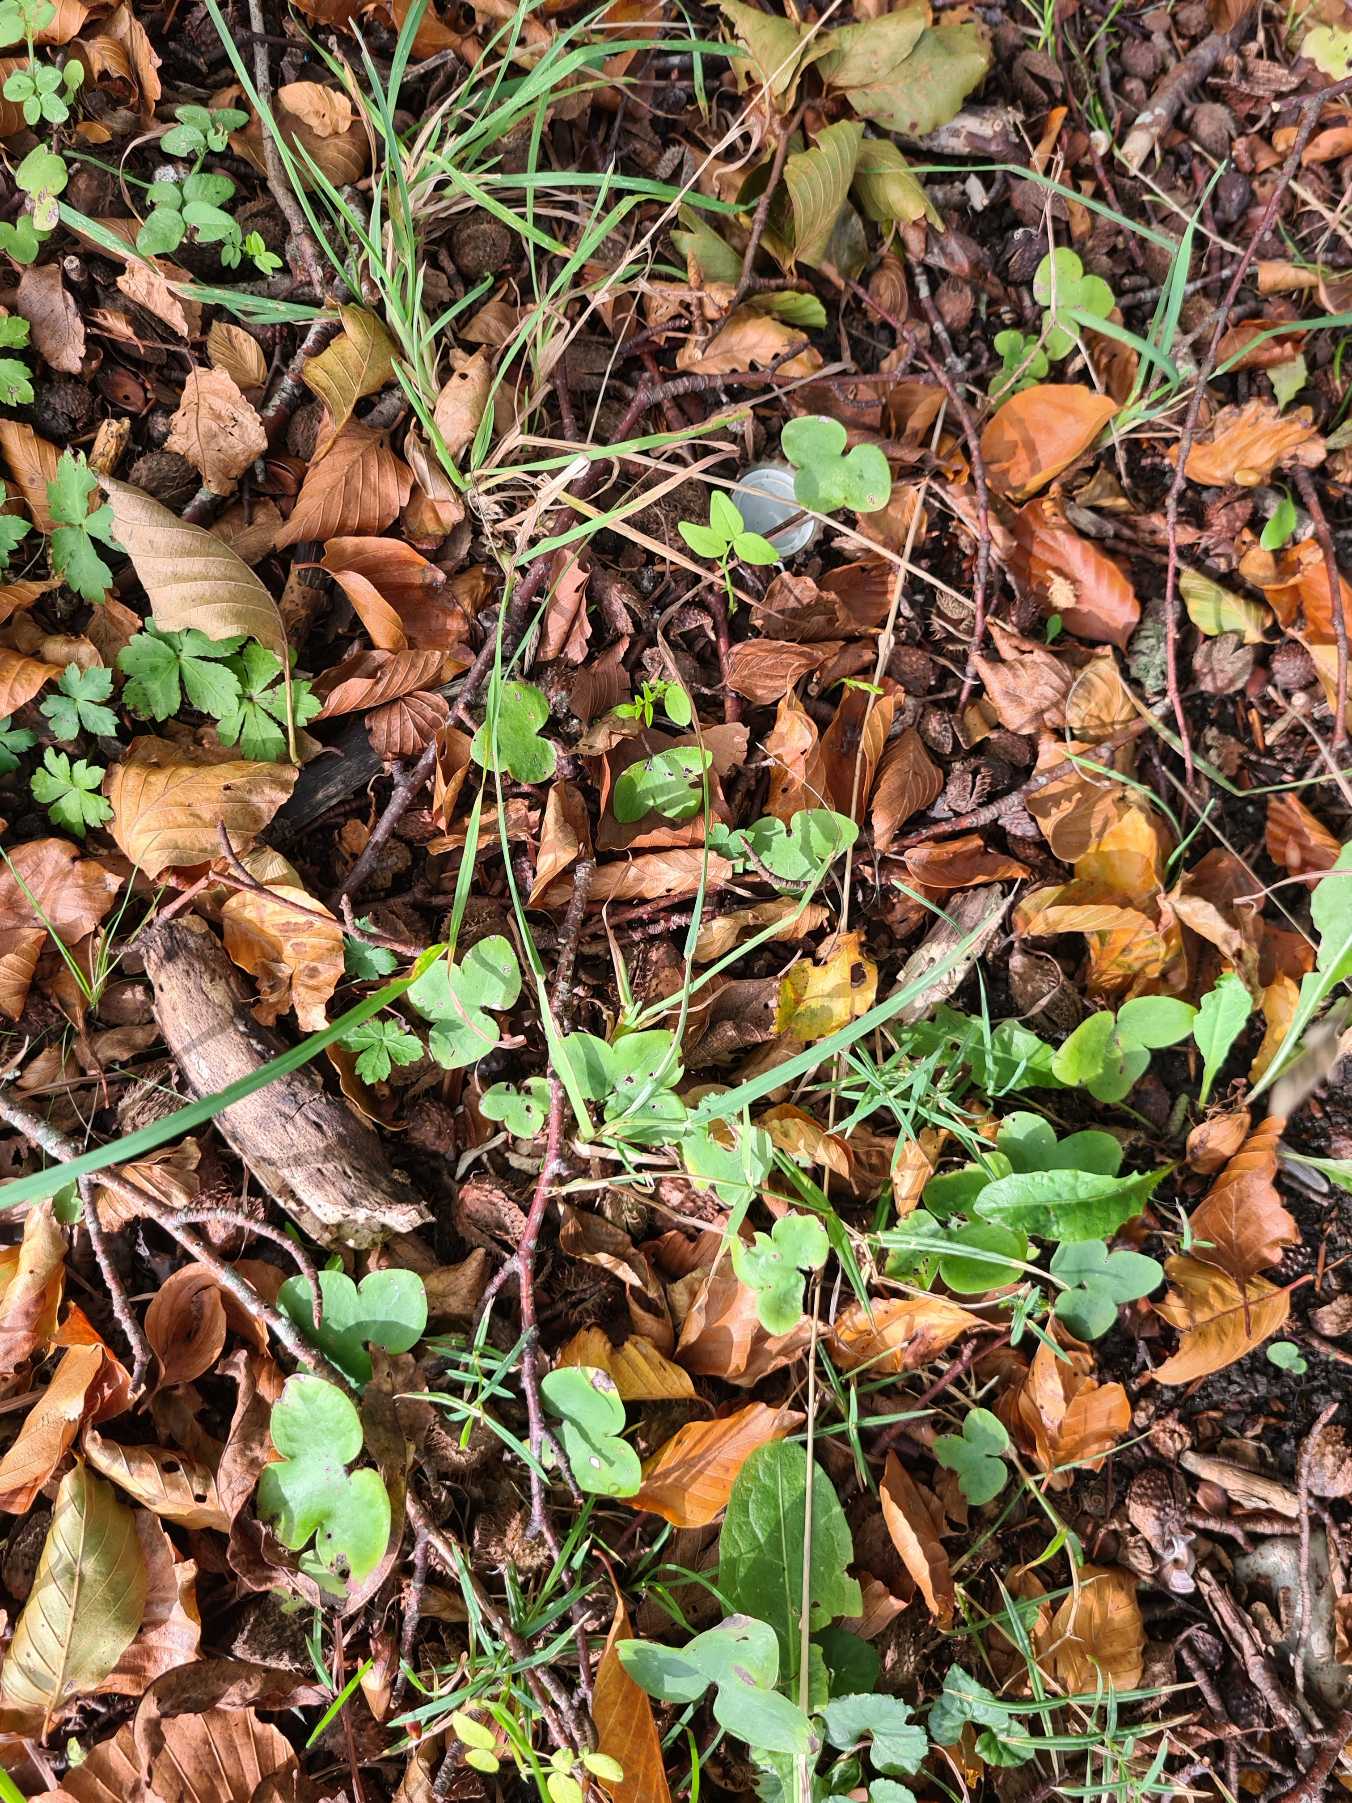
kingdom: Plantae
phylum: Tracheophyta
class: Magnoliopsida
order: Ranunculales
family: Ranunculaceae
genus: Hepatica
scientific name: Hepatica nobilis
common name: Blå anemone
